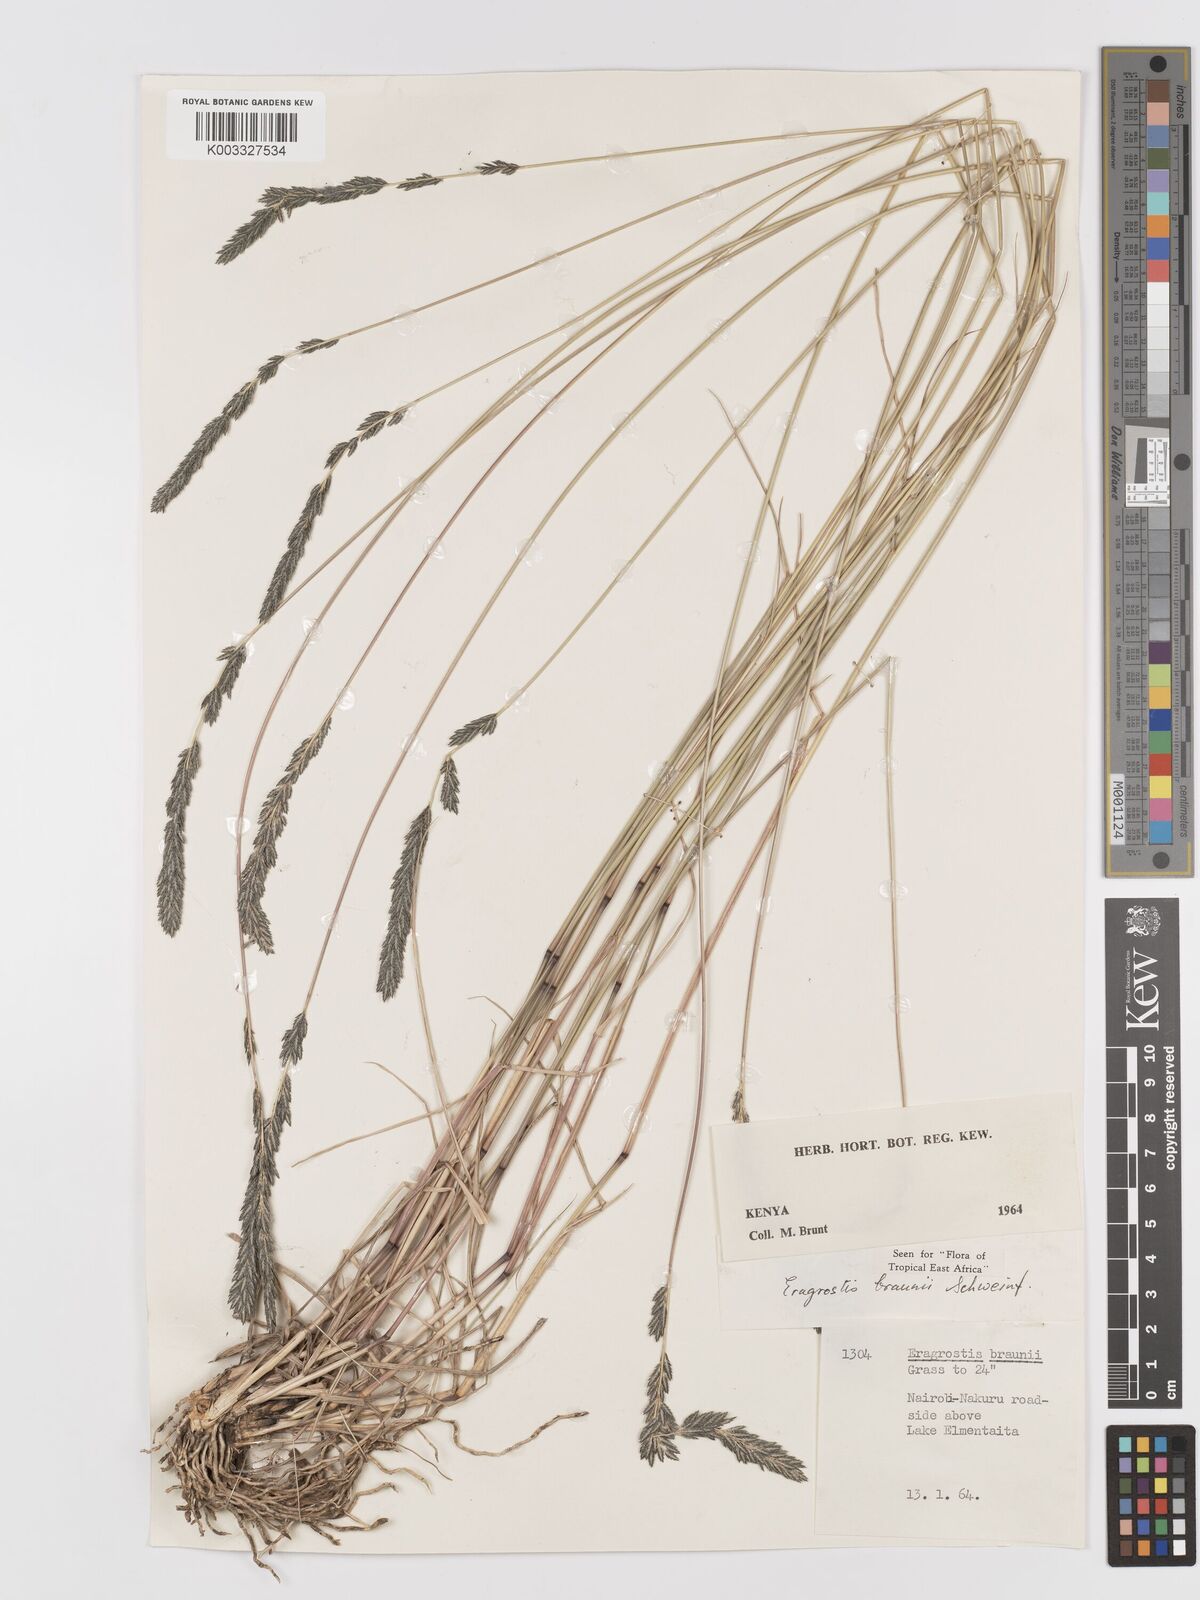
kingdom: Plantae
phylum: Tracheophyta
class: Liliopsida
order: Poales
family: Poaceae
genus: Eragrostis
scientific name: Eragrostis braunii
